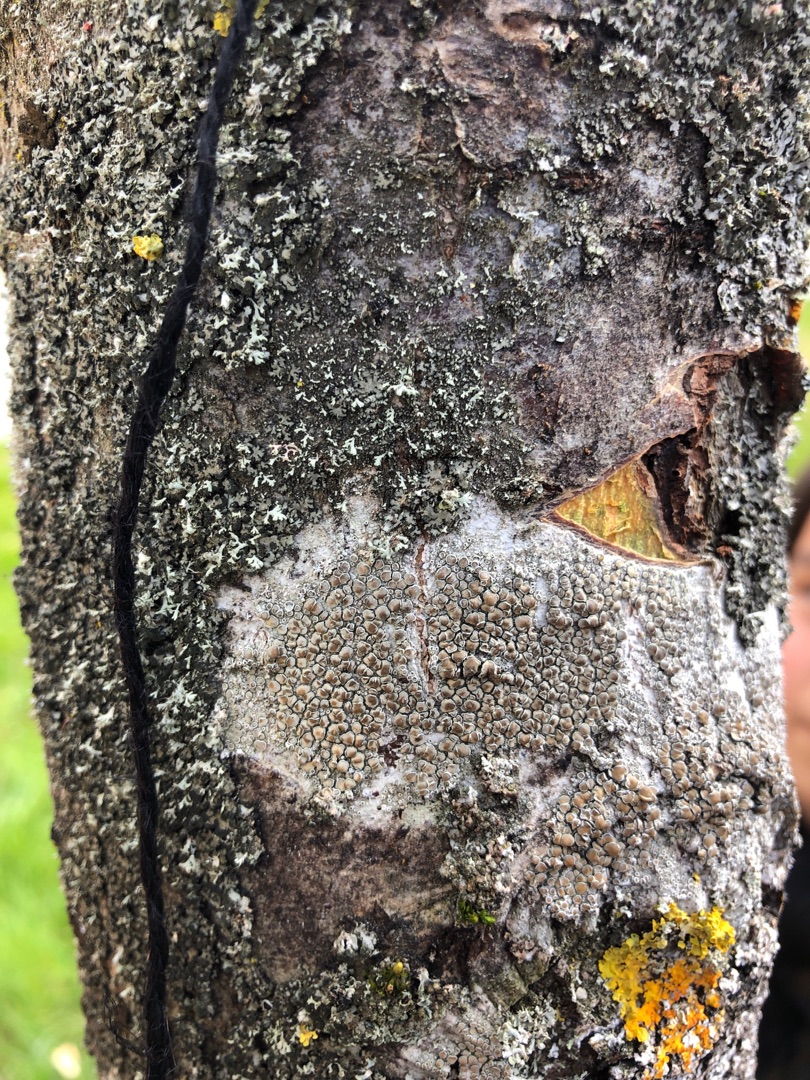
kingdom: Fungi
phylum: Ascomycota
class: Lecanoromycetes
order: Lecanorales
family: Lecanoraceae
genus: Lecanora
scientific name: Lecanora chlarotera
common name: Brun kantskivelav
